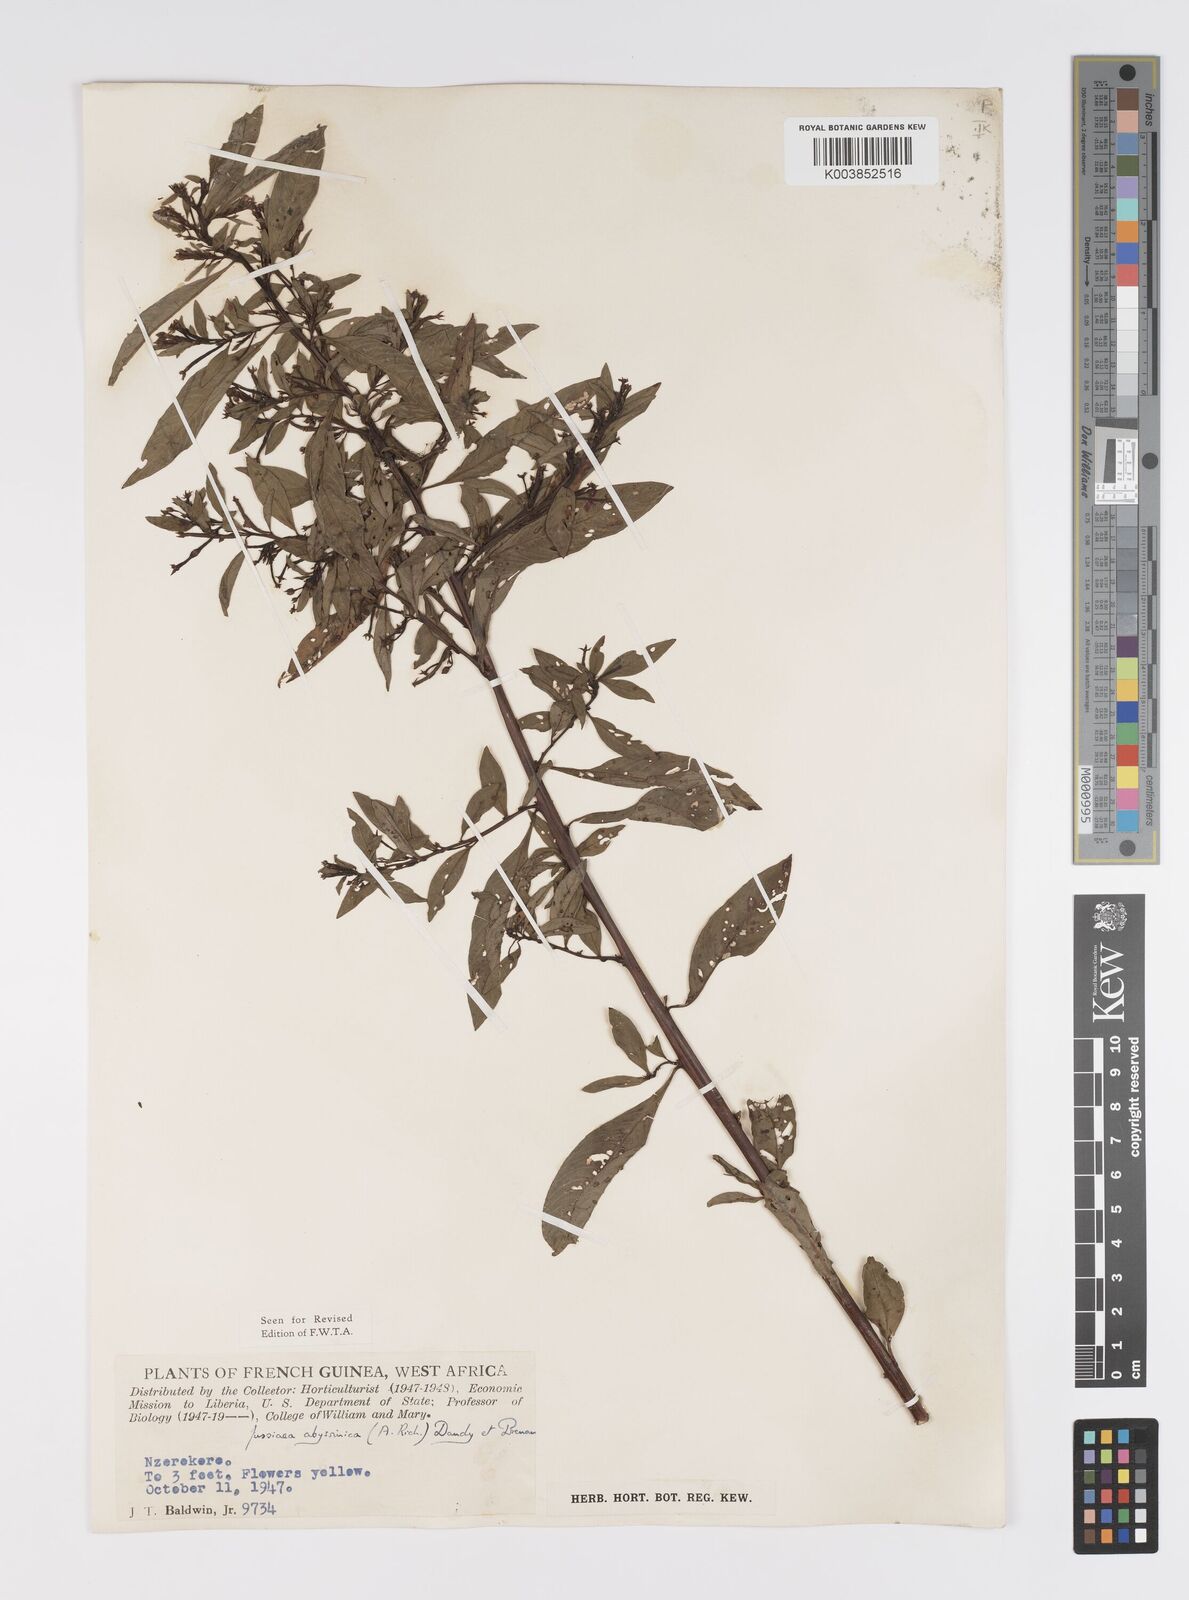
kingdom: Plantae
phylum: Tracheophyta
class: Magnoliopsida
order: Myrtales
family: Onagraceae
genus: Ludwigia
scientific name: Ludwigia abyssinica
